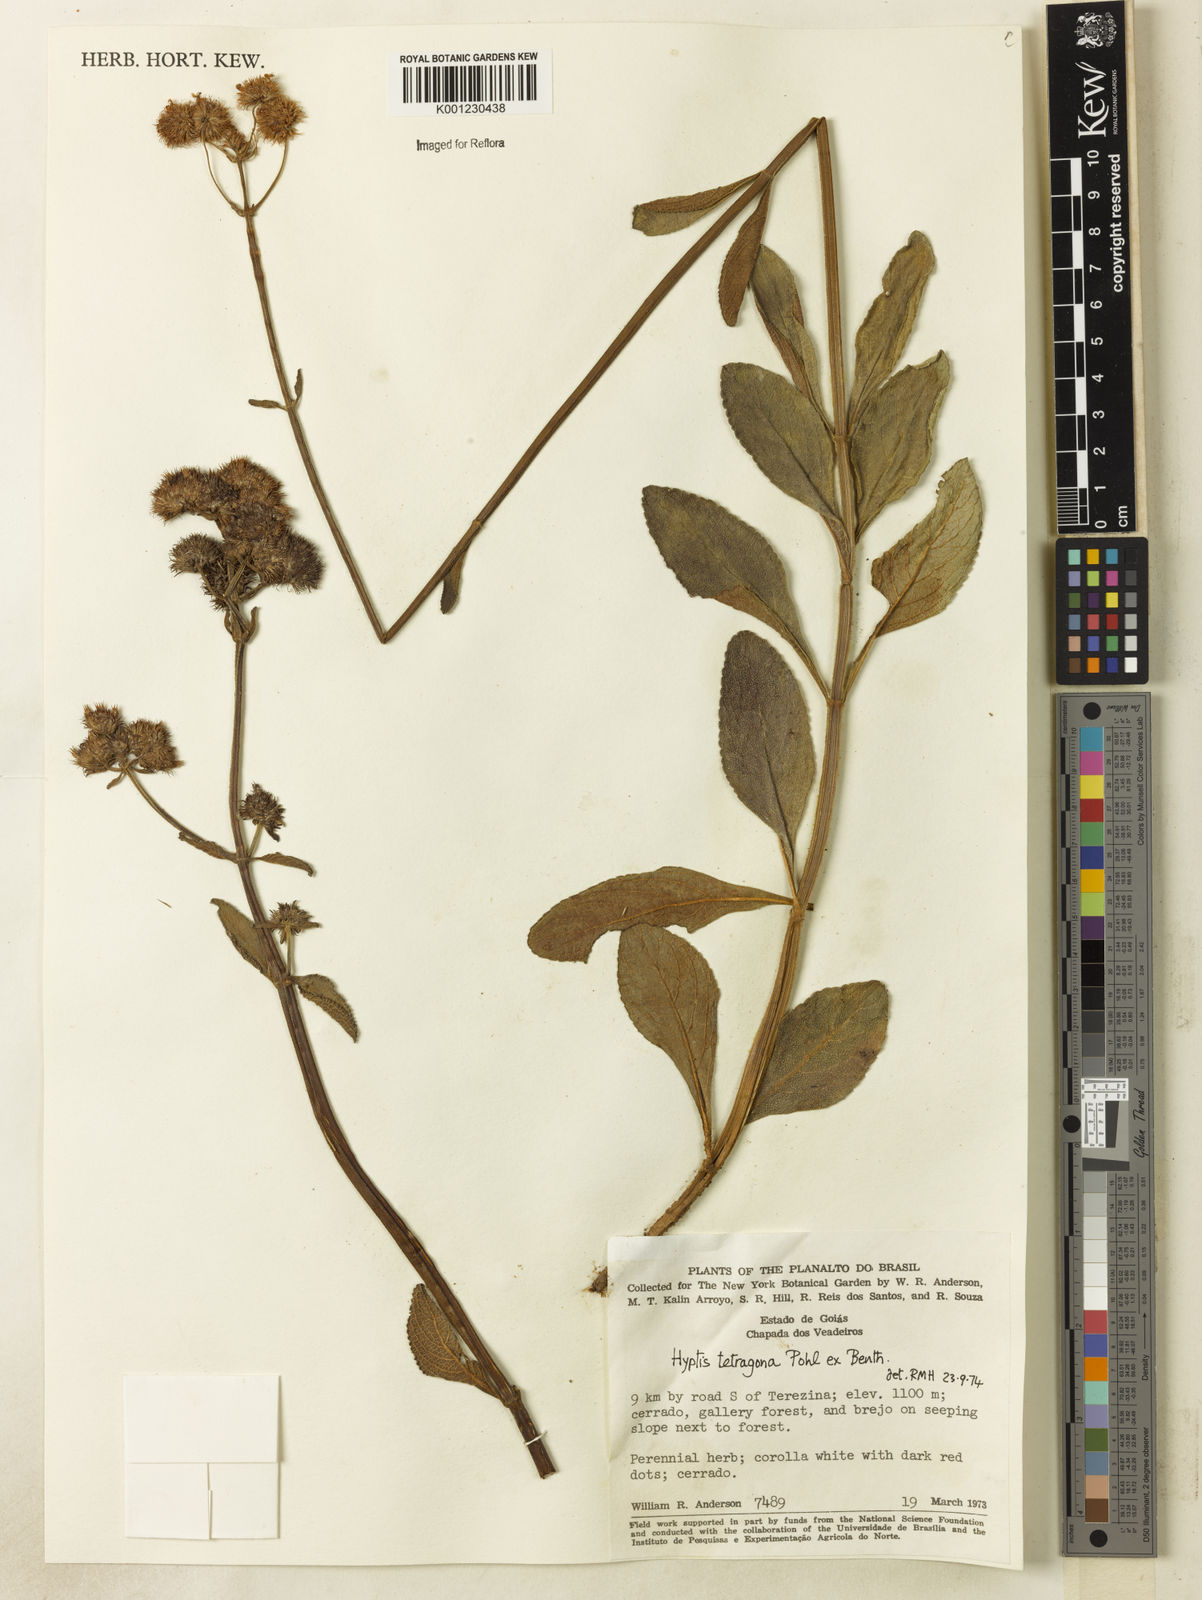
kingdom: Plantae
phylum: Tracheophyta
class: Magnoliopsida
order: Lamiales
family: Lamiaceae
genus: Hyptis
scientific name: Hyptis
